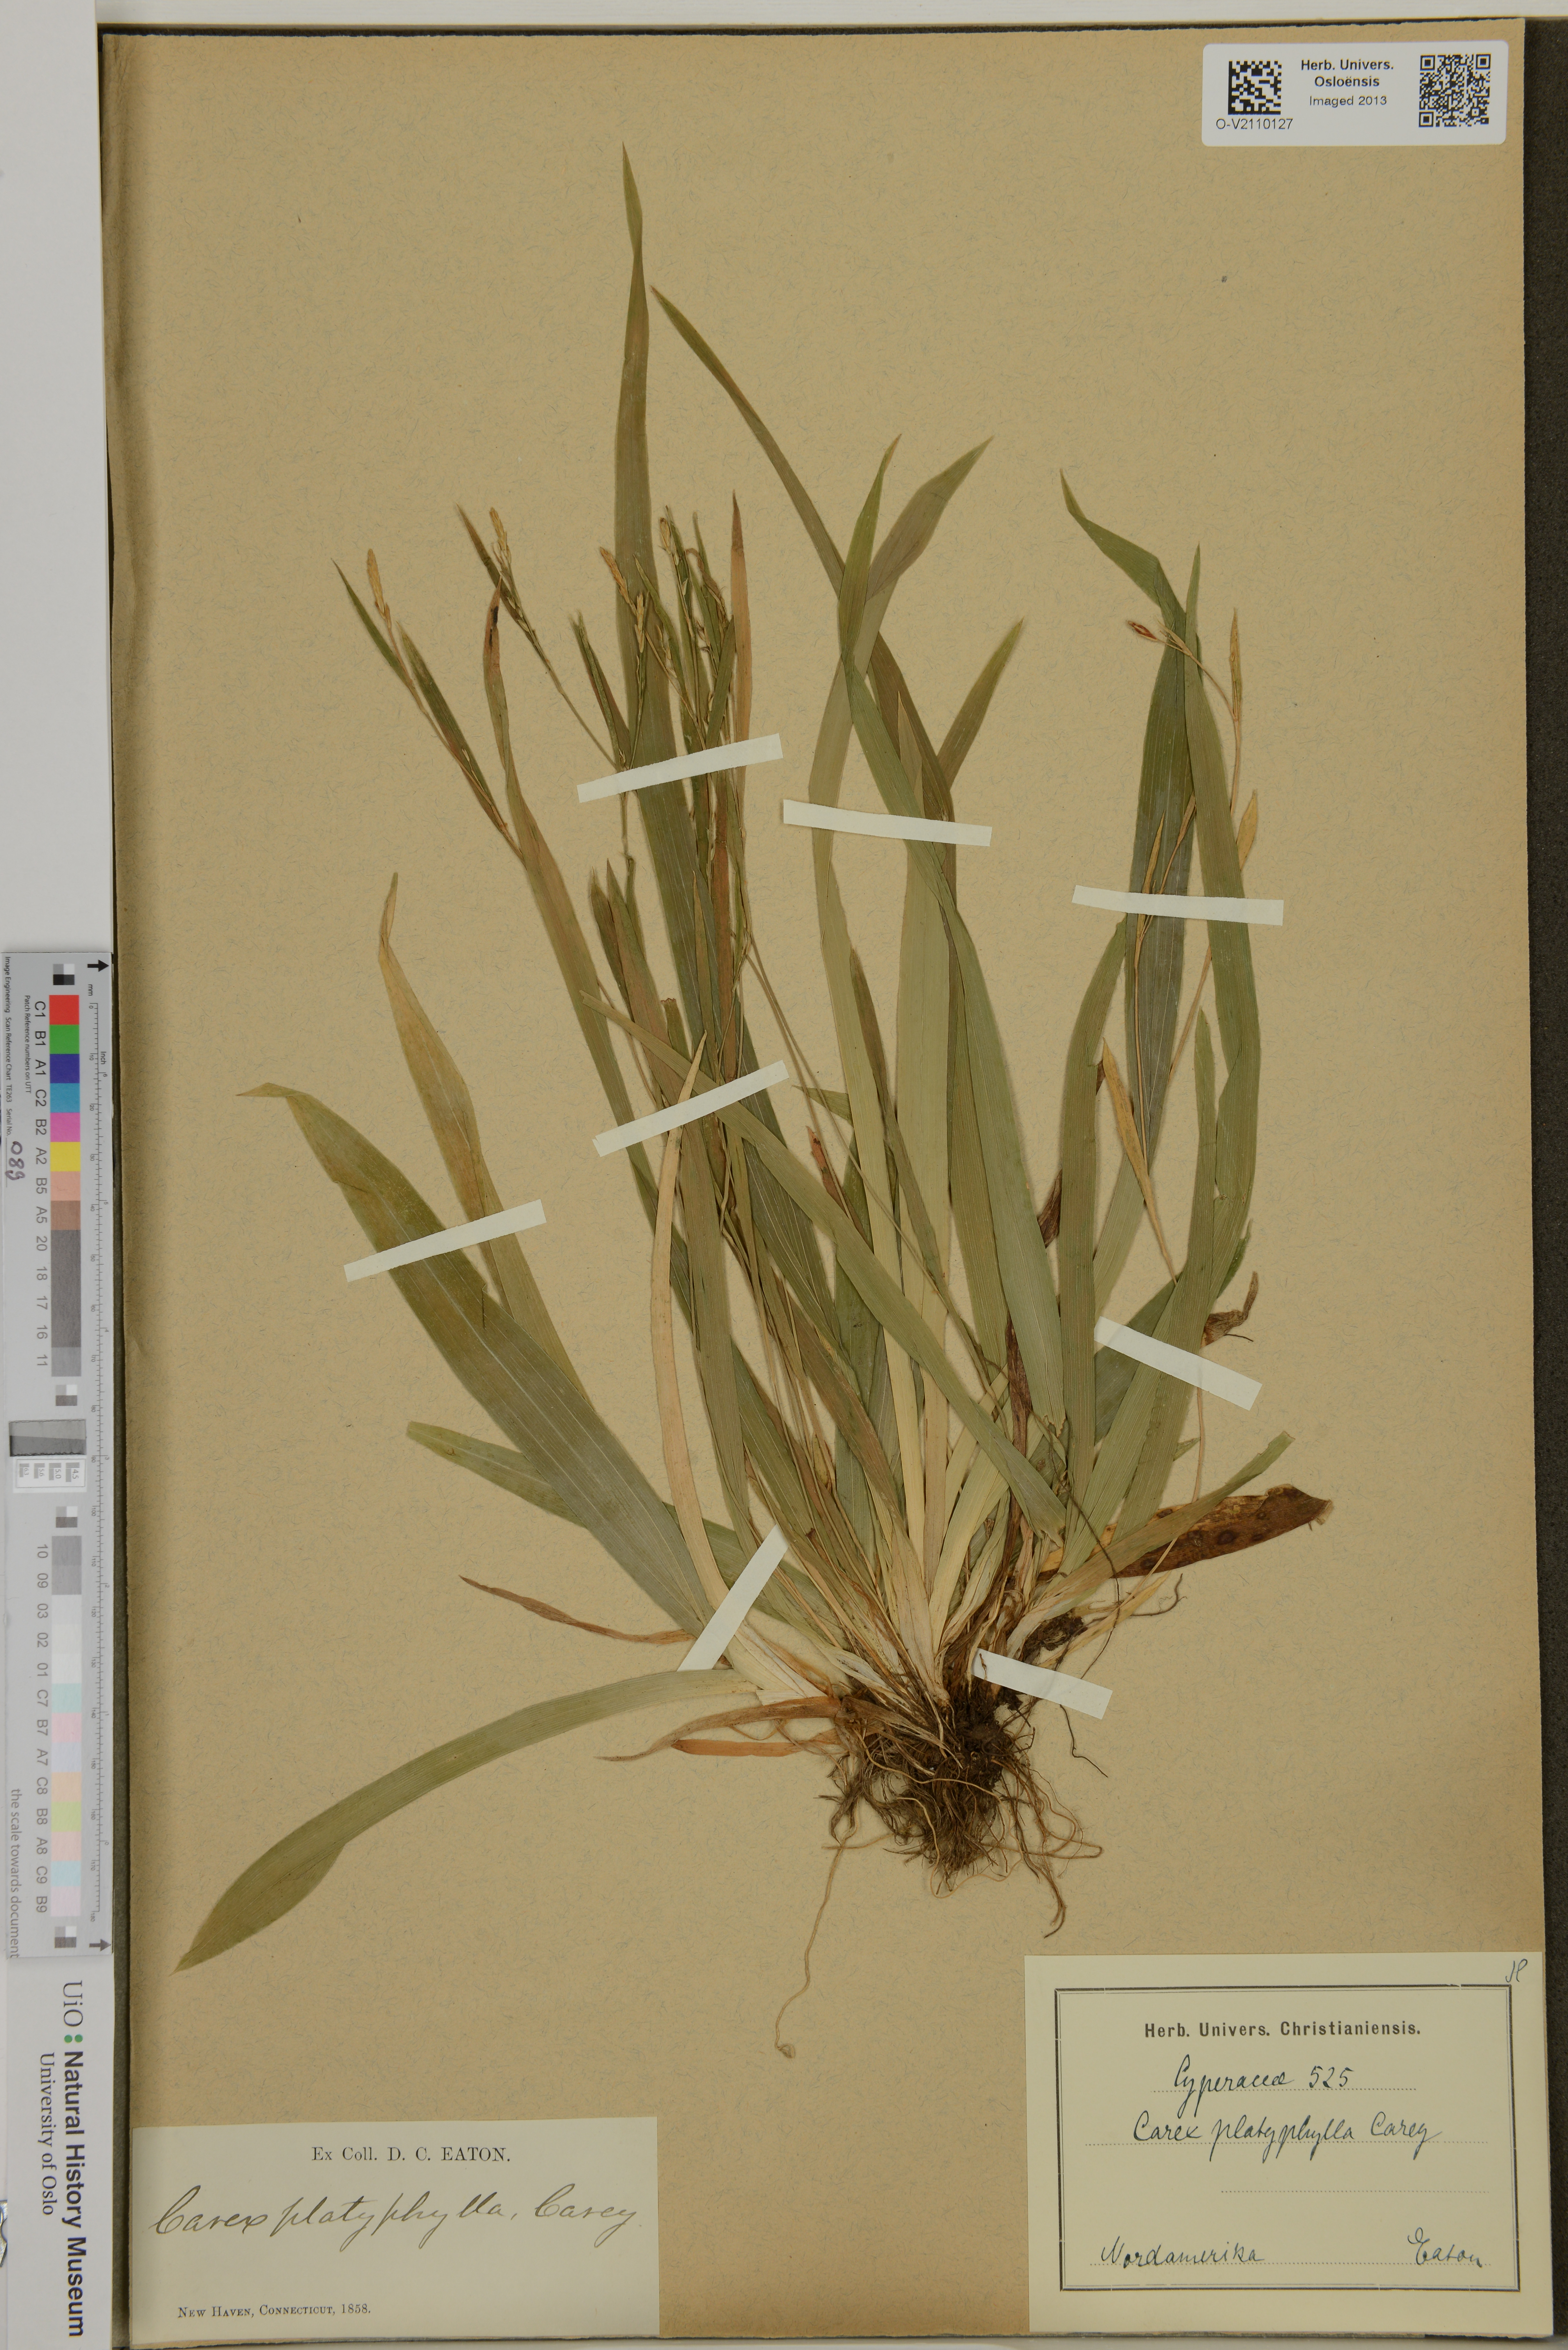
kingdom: Plantae
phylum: Tracheophyta
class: Liliopsida
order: Poales
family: Cyperaceae
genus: Carex
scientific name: Carex platyphylla
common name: Broad-leaved sedge
